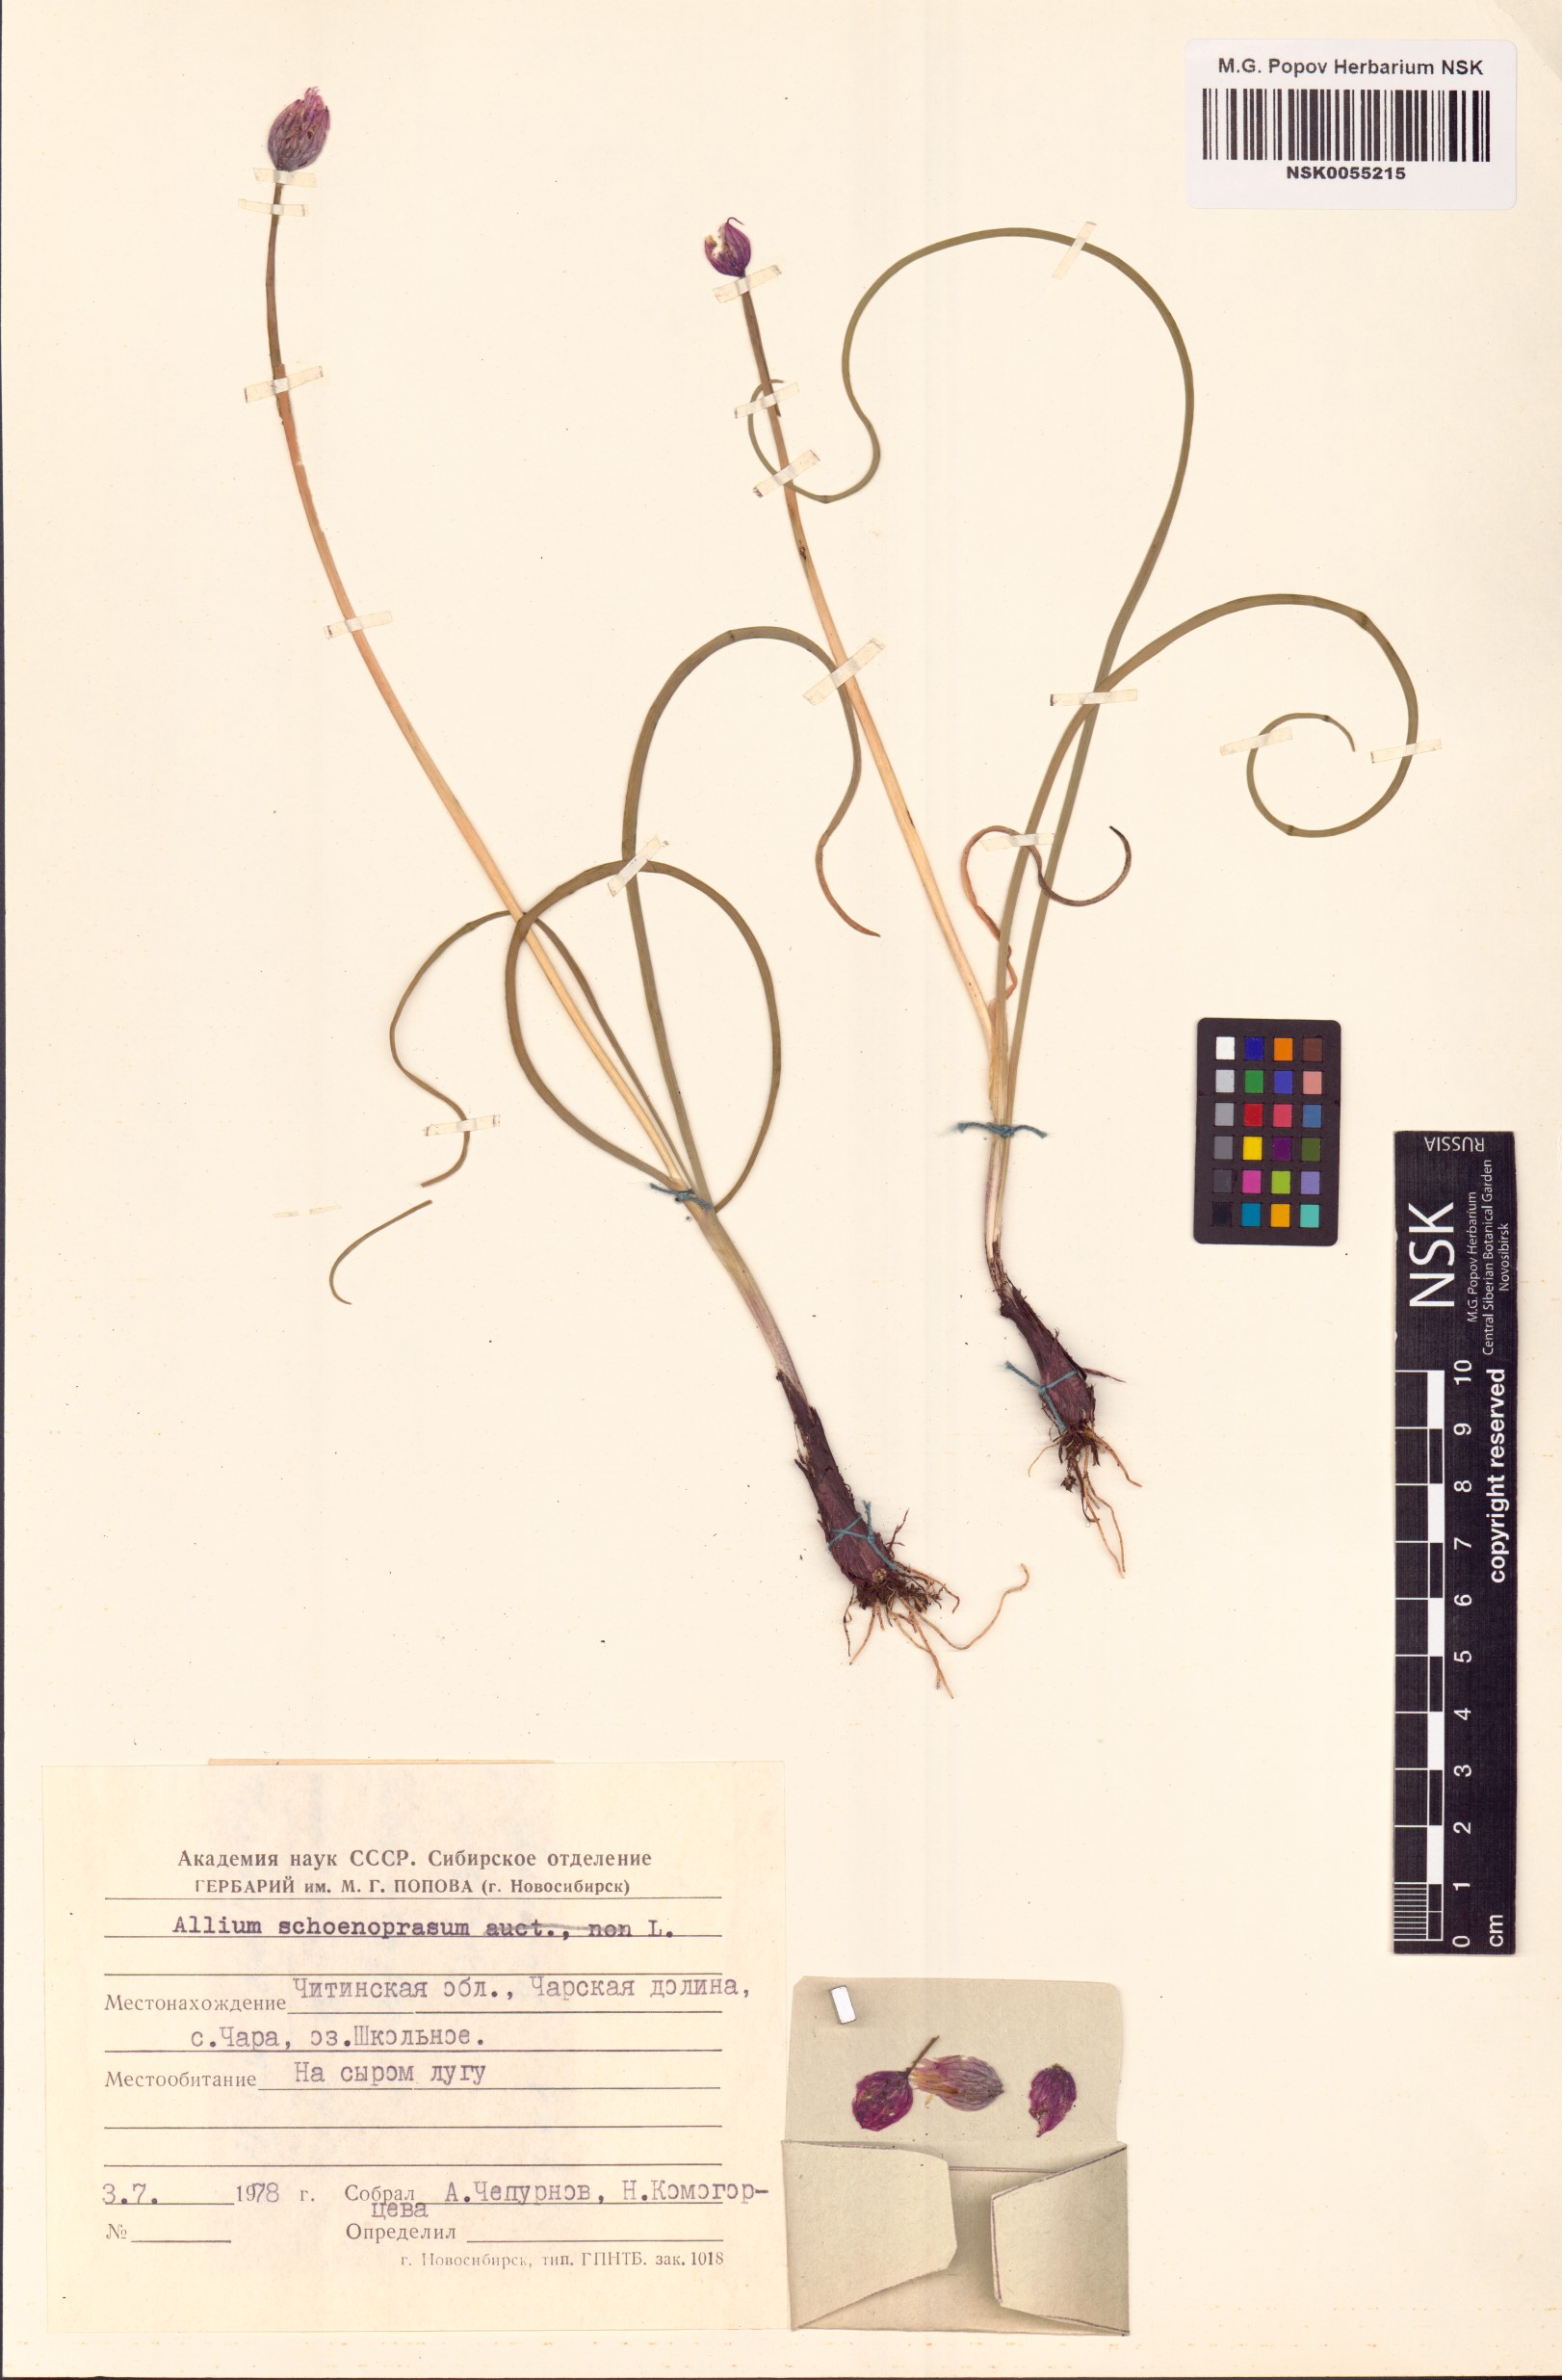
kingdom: Plantae
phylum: Tracheophyta
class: Liliopsida
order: Asparagales
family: Amaryllidaceae
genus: Allium
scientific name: Allium schoenoprasum
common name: Chives
